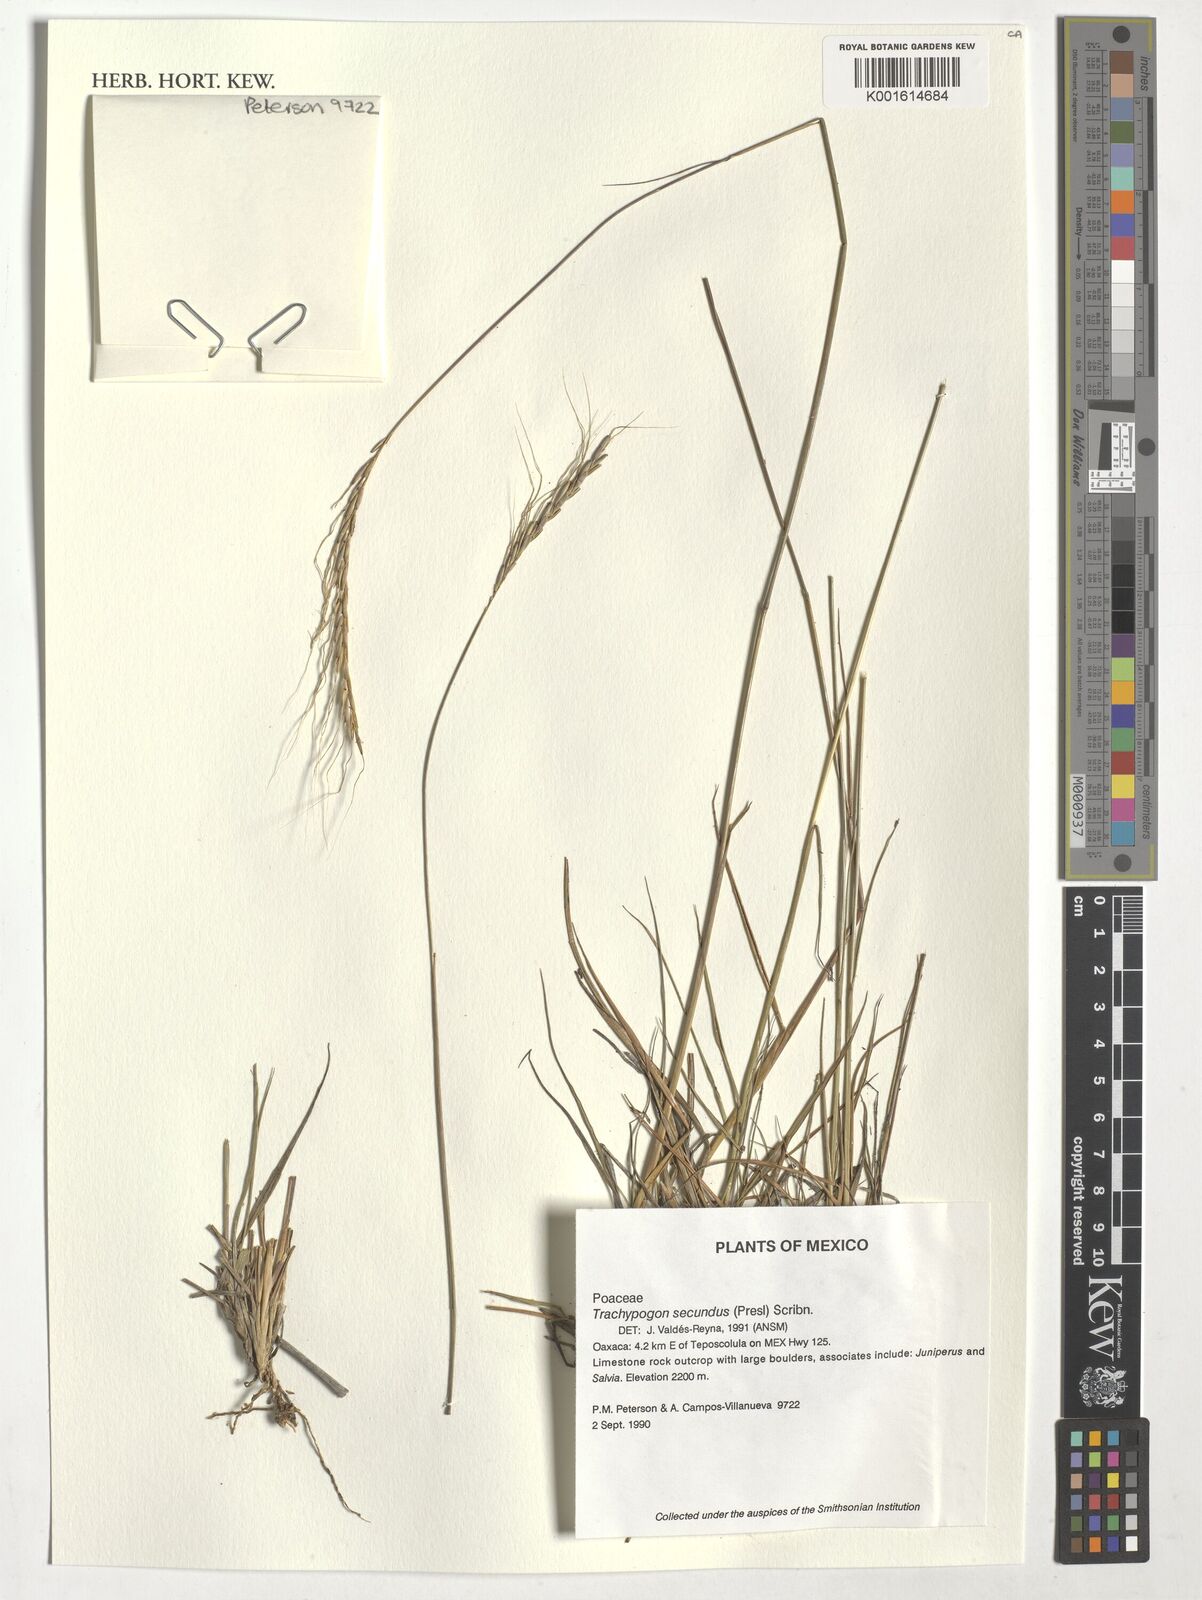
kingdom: Plantae
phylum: Tracheophyta
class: Liliopsida
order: Poales
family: Poaceae
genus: Trachypogon
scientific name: Trachypogon spicatus
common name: Crinkle-awn
